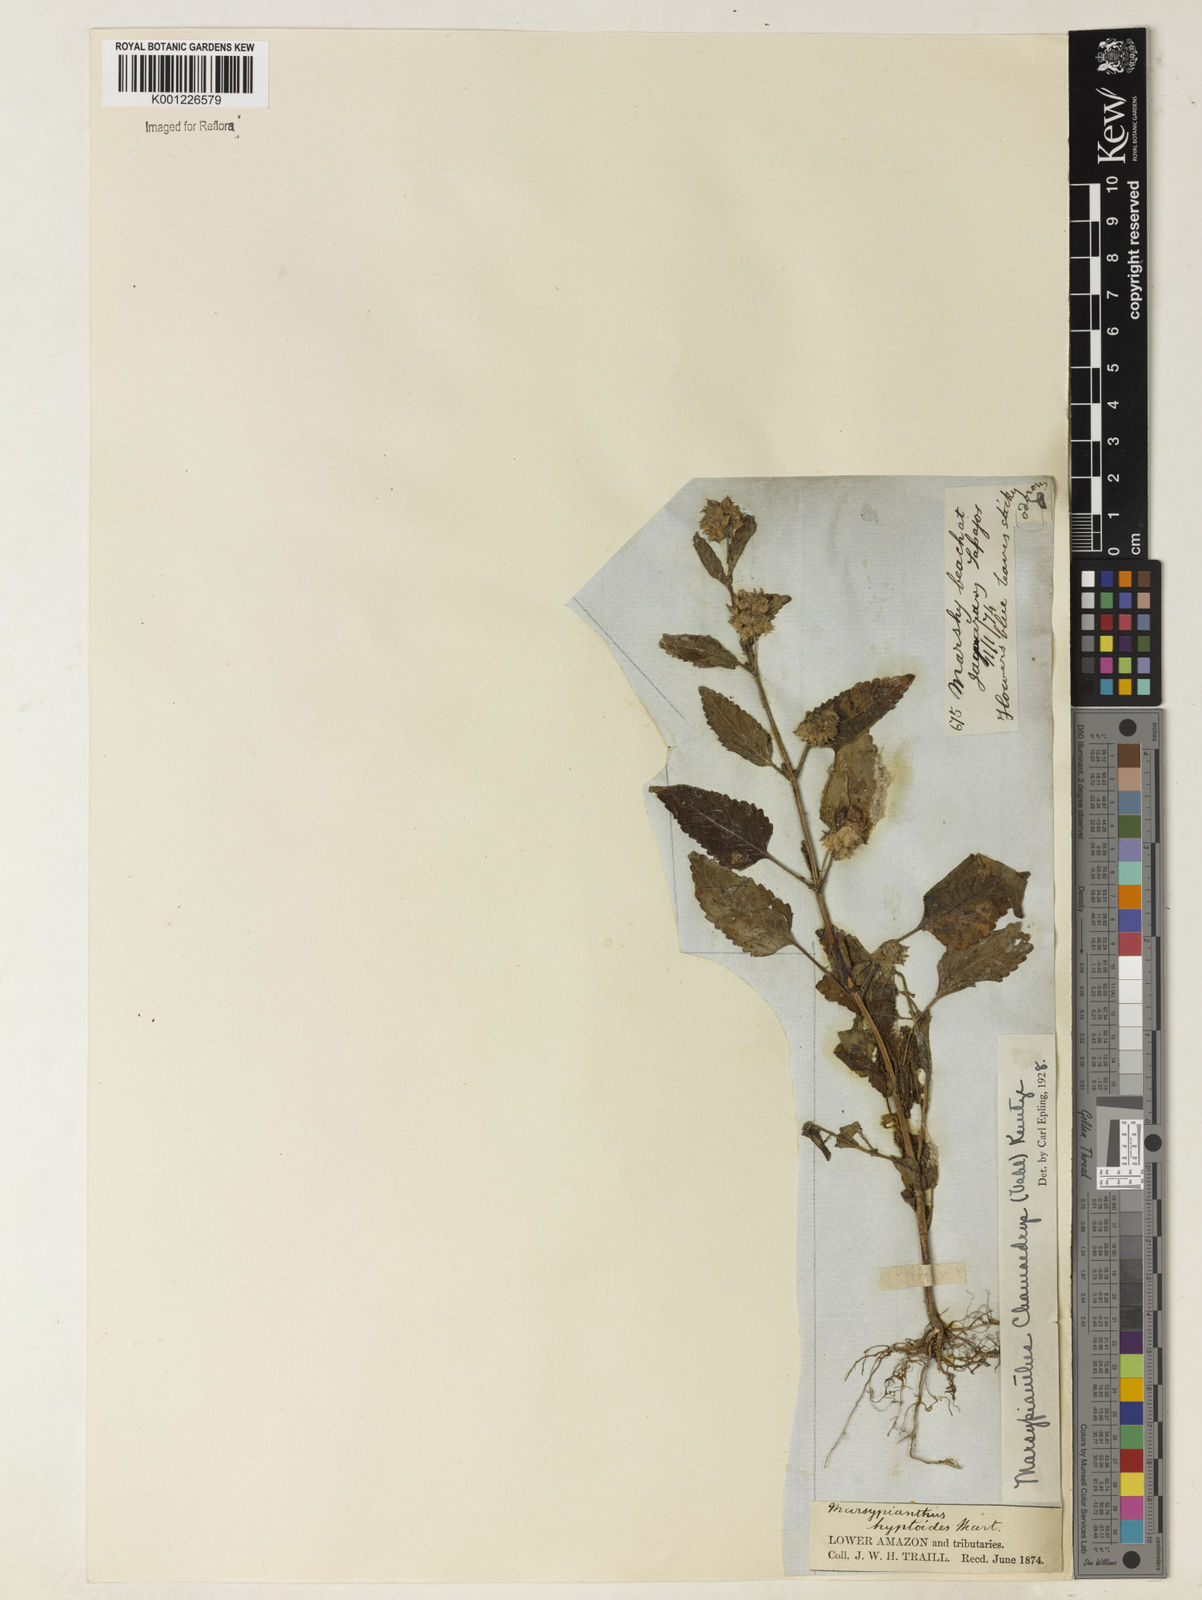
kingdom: Plantae
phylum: Tracheophyta
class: Magnoliopsida
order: Lamiales
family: Lamiaceae
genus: Marsypianthes
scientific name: Marsypianthes chamaedrys
